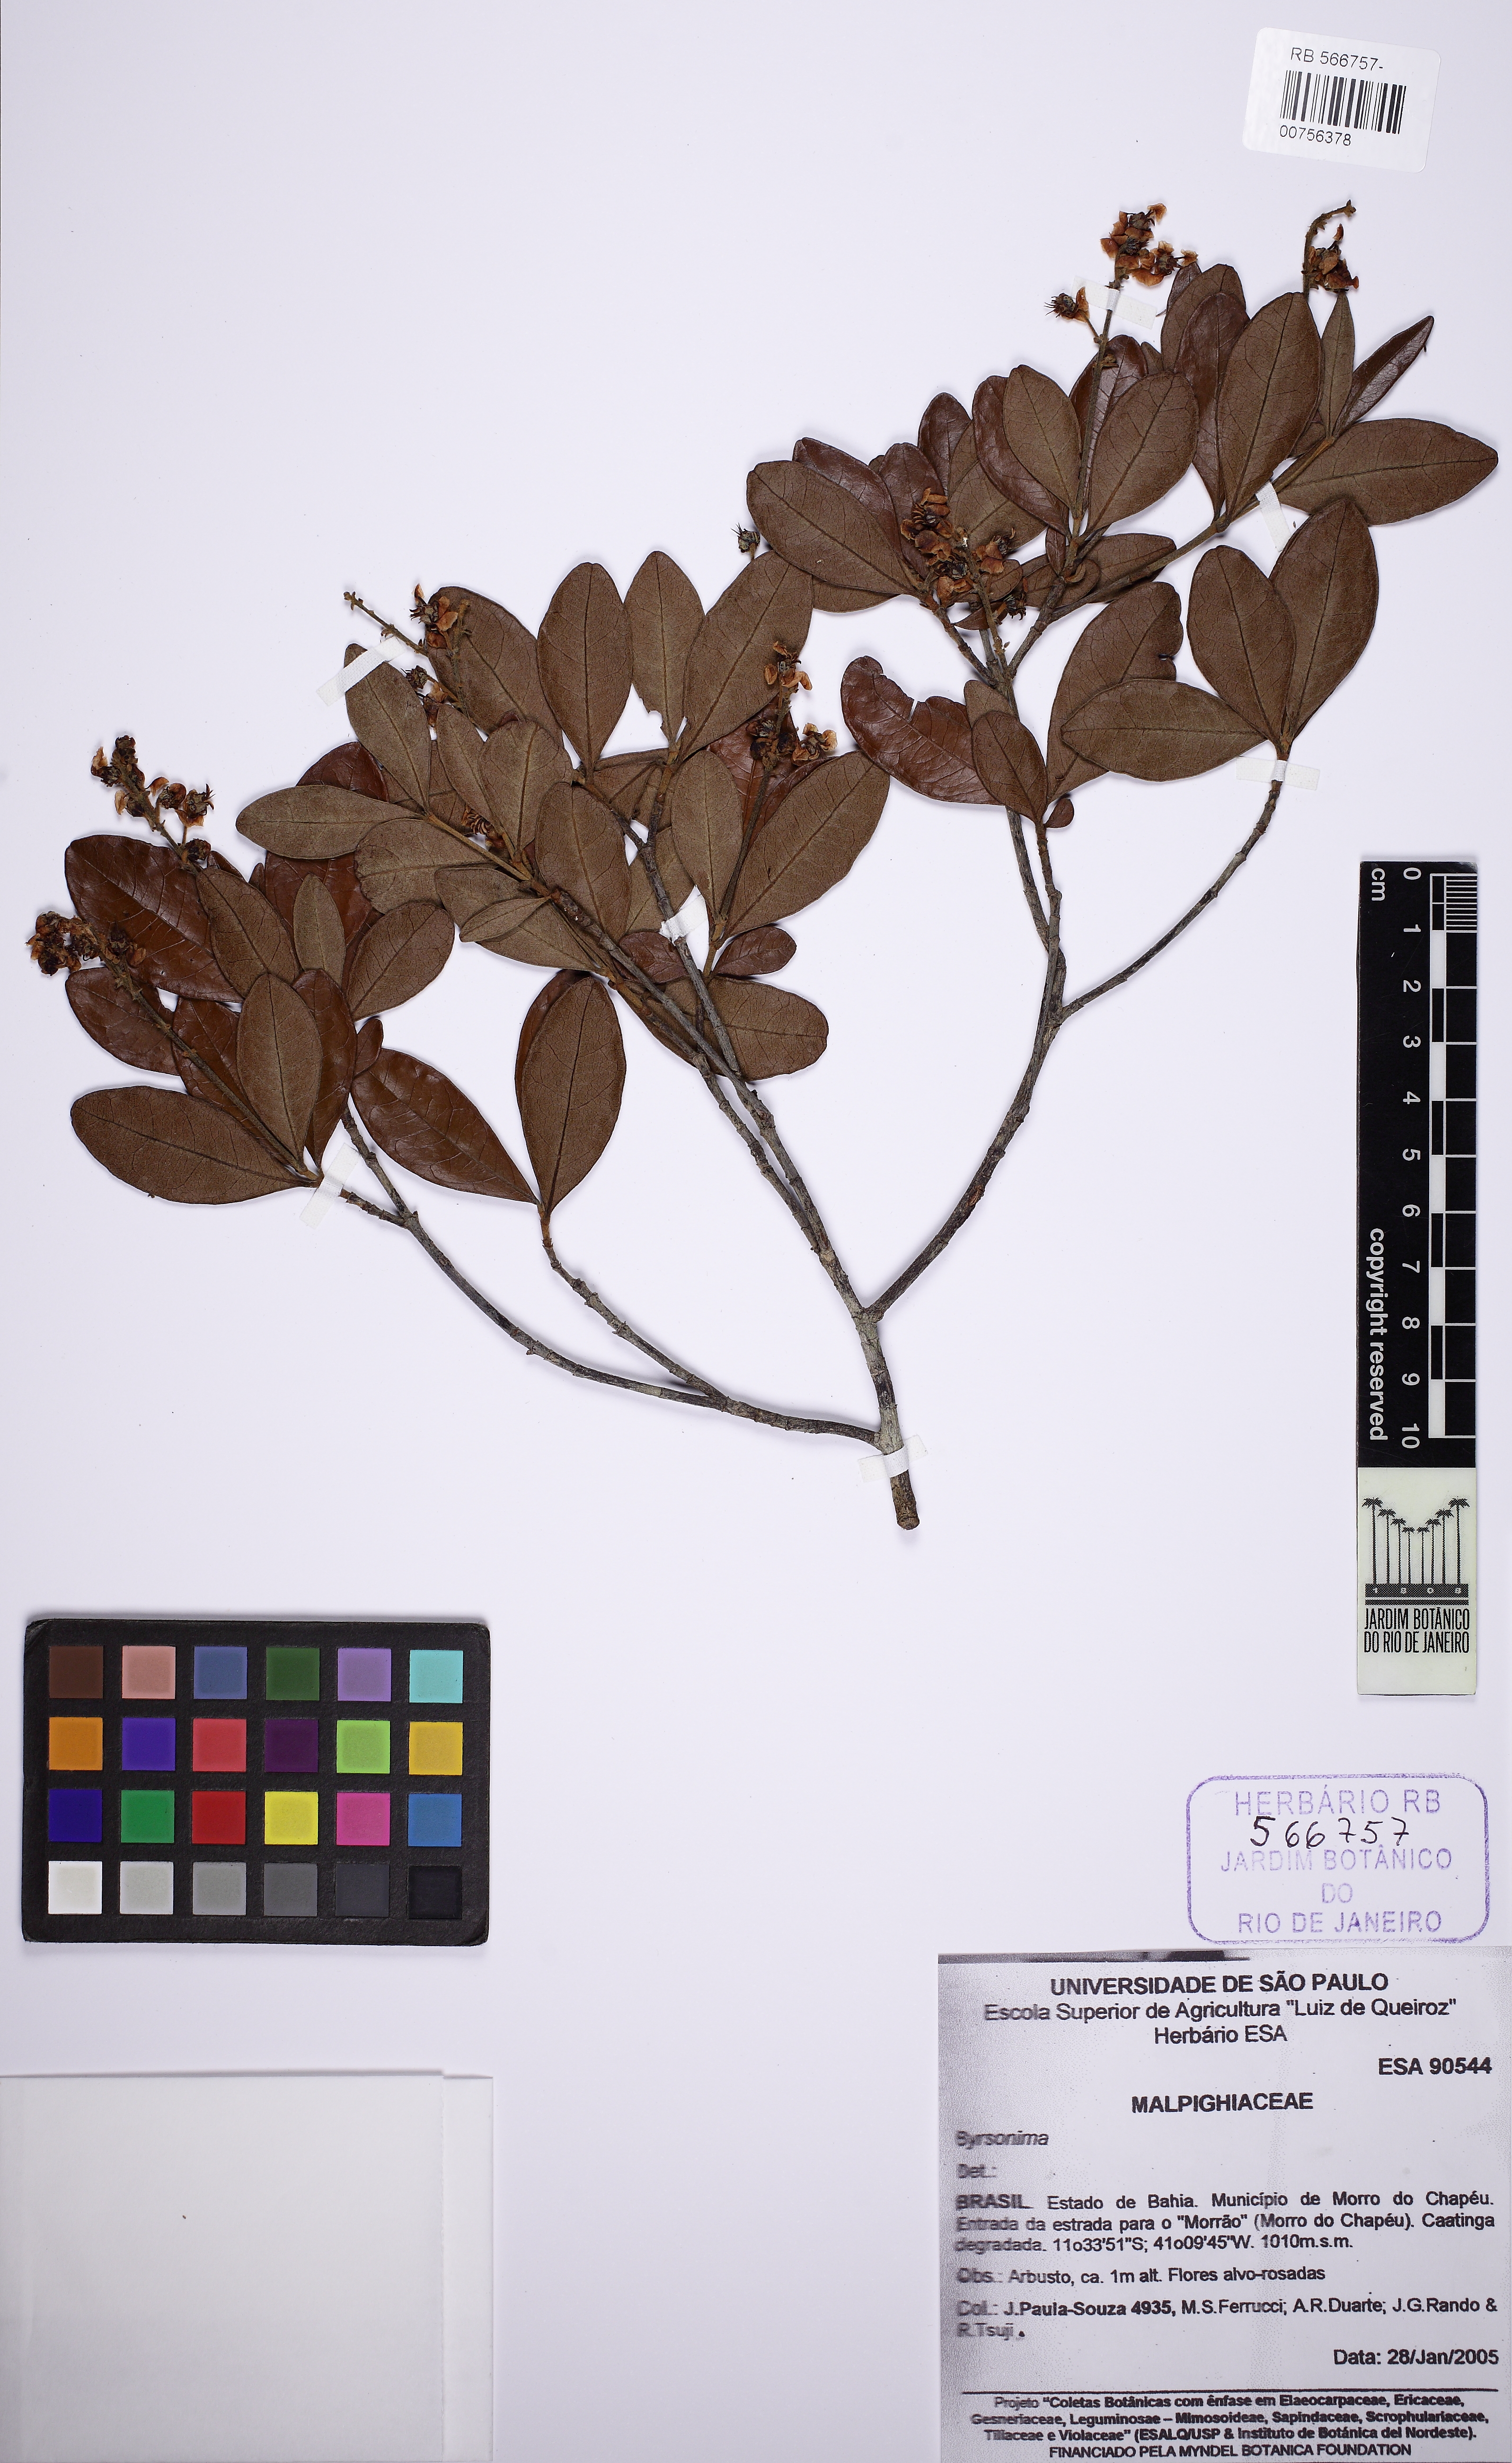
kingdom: Plantae
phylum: Tracheophyta
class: Magnoliopsida
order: Malpighiales
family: Malpighiaceae
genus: Byrsonima
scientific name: Byrsonima
